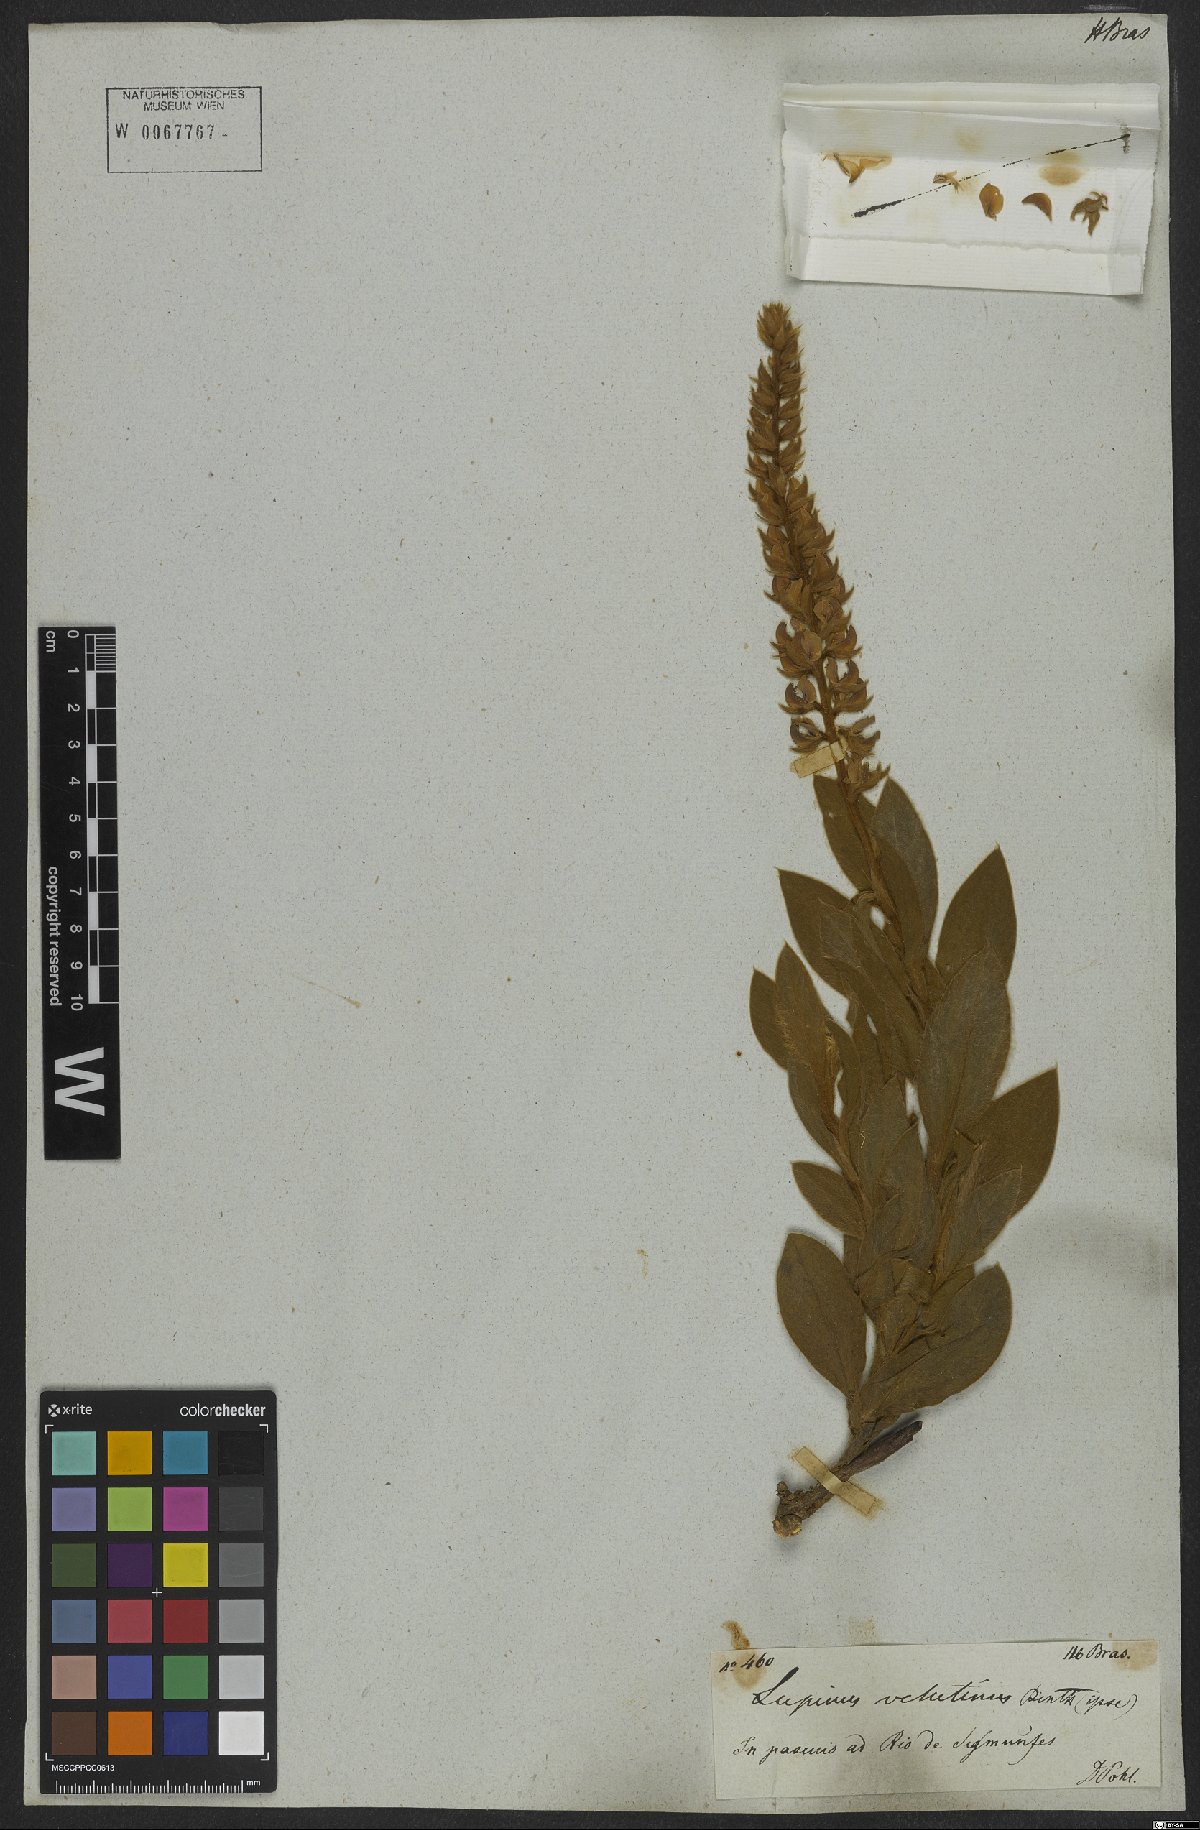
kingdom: Plantae
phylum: Tracheophyta
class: Magnoliopsida
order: Fabales
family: Fabaceae
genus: Lupinus
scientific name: Lupinus velutinus
